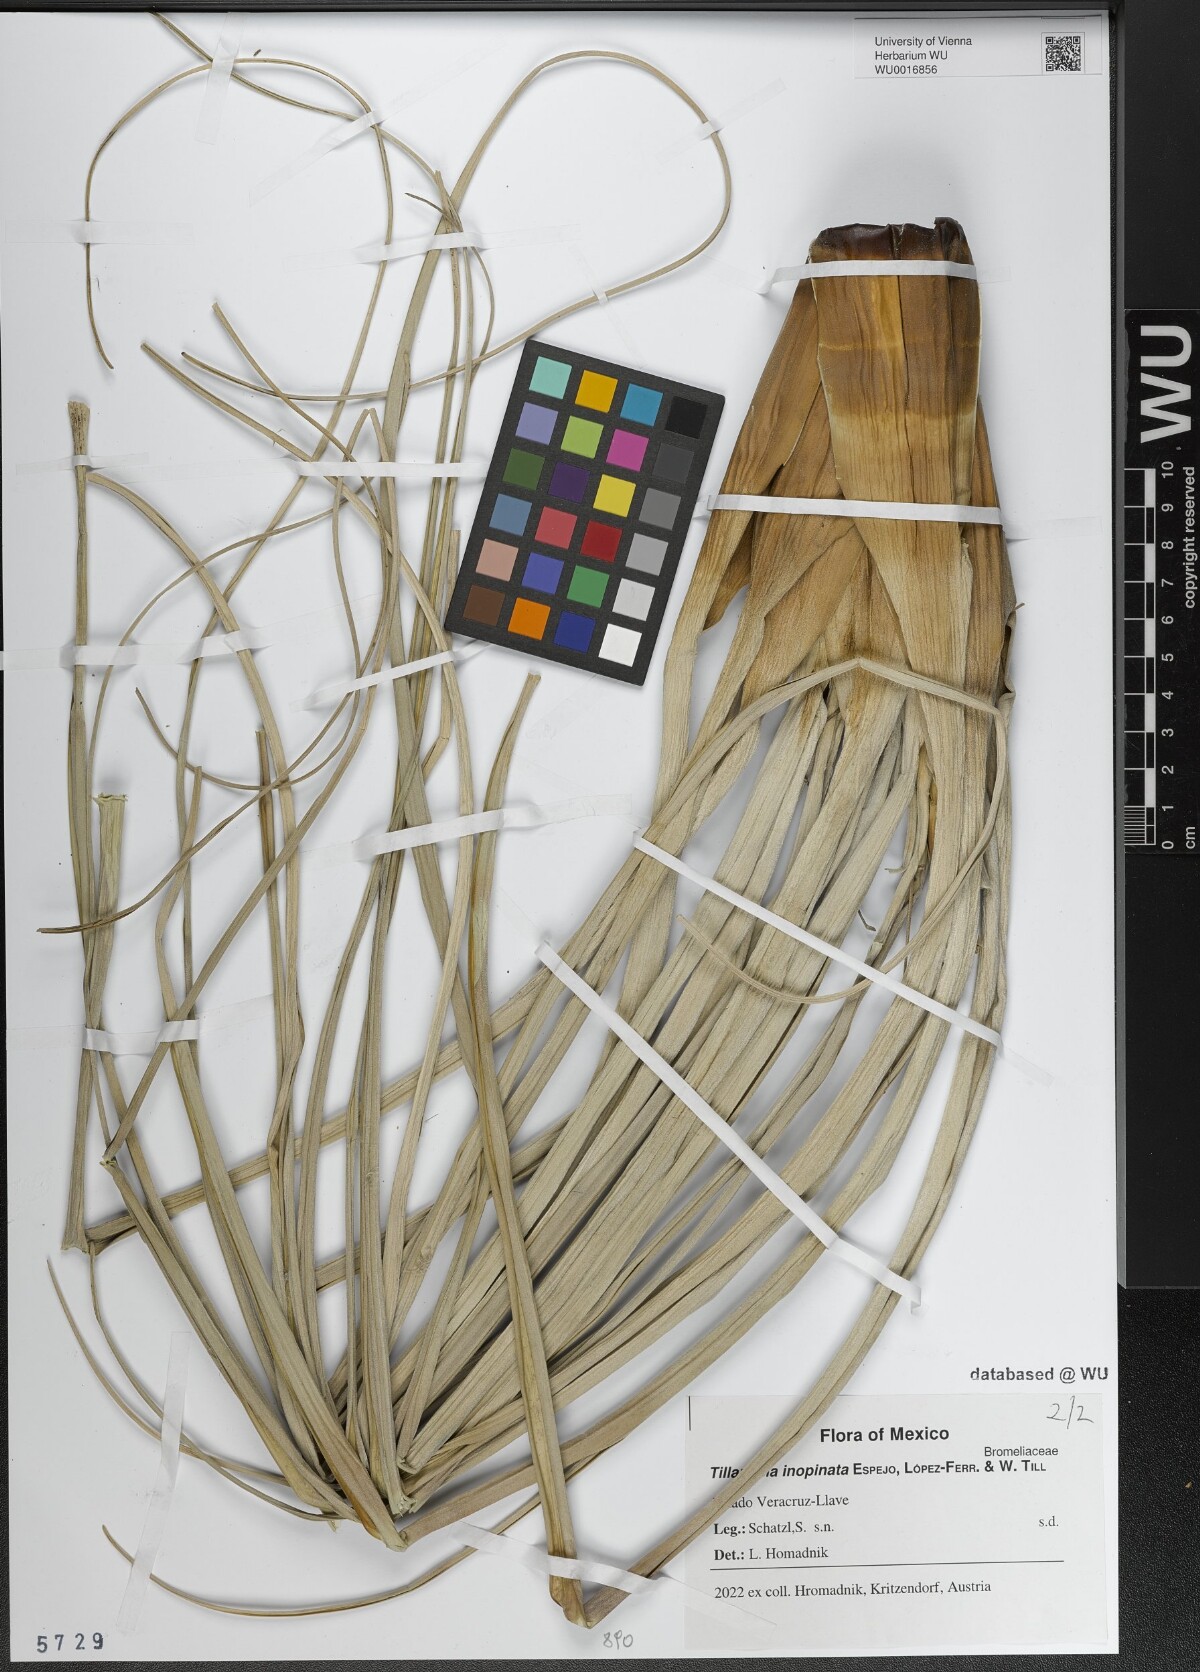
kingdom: Plantae
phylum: Tracheophyta
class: Liliopsida
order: Poales
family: Bromeliaceae
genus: Tillandsia
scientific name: Tillandsia inopinata
